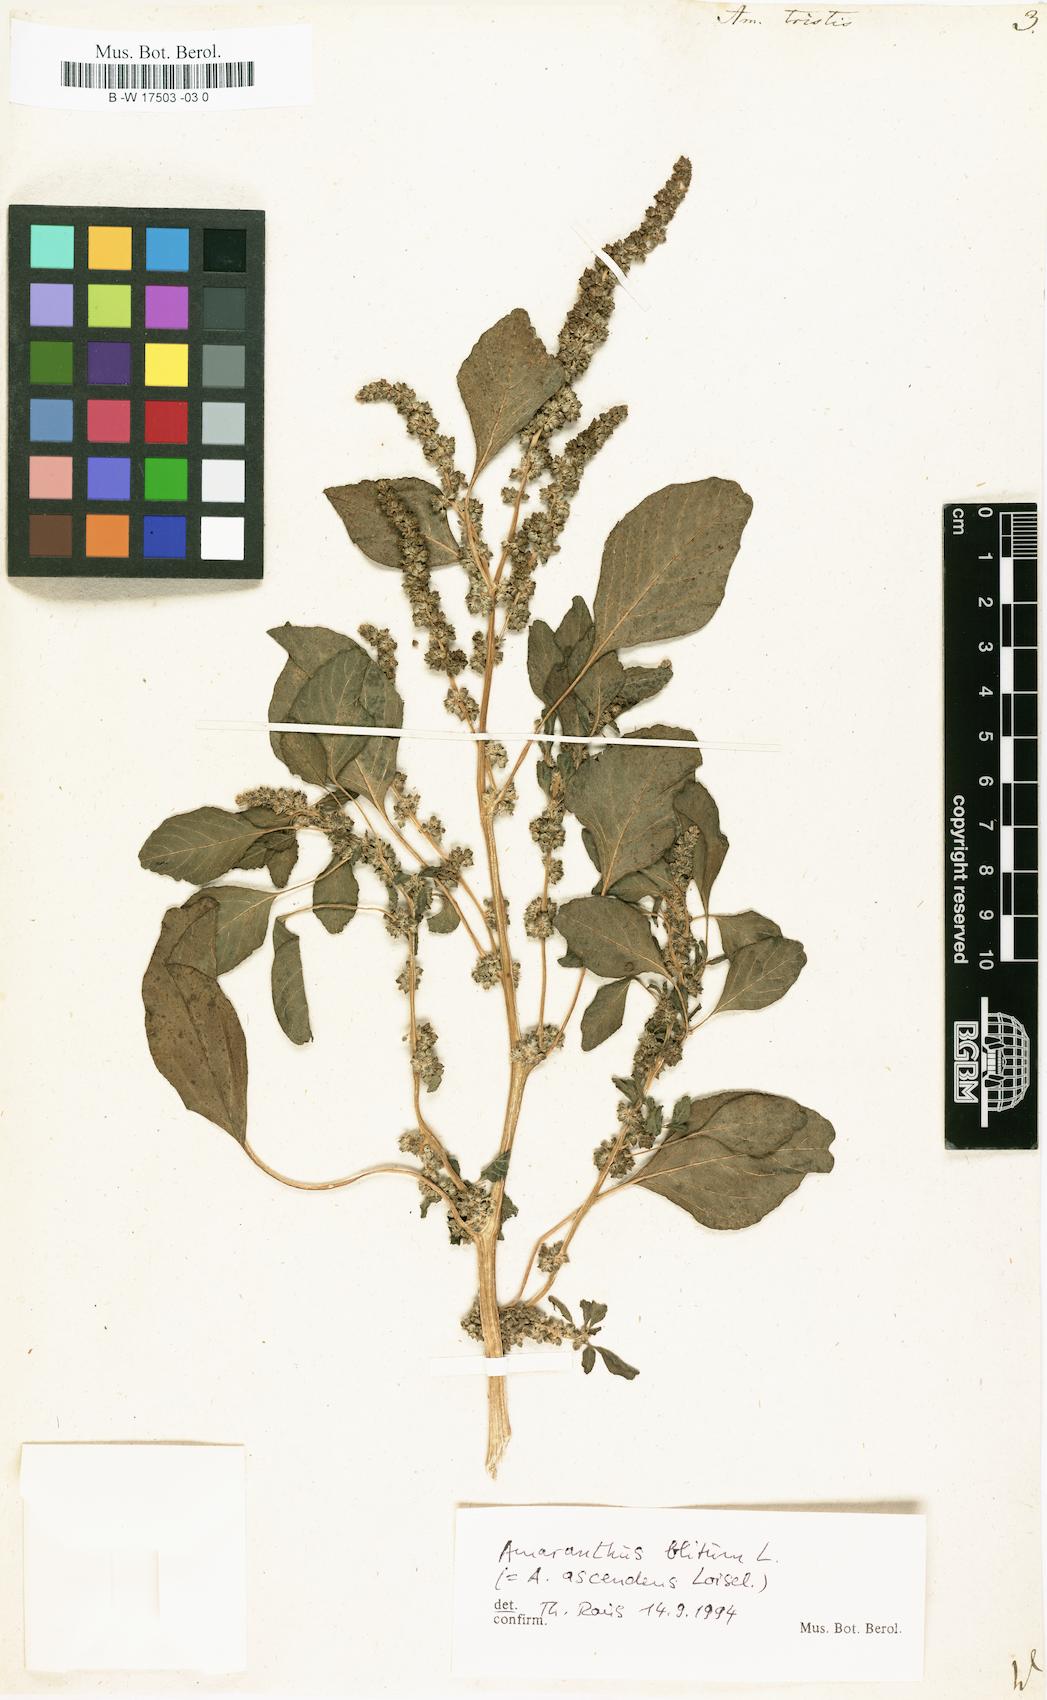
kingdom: Plantae
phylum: Tracheophyta
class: Magnoliopsida
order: Caryophyllales
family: Amaranthaceae
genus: Amaranthus
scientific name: Amaranthus tricolor
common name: Joseph's-coat
